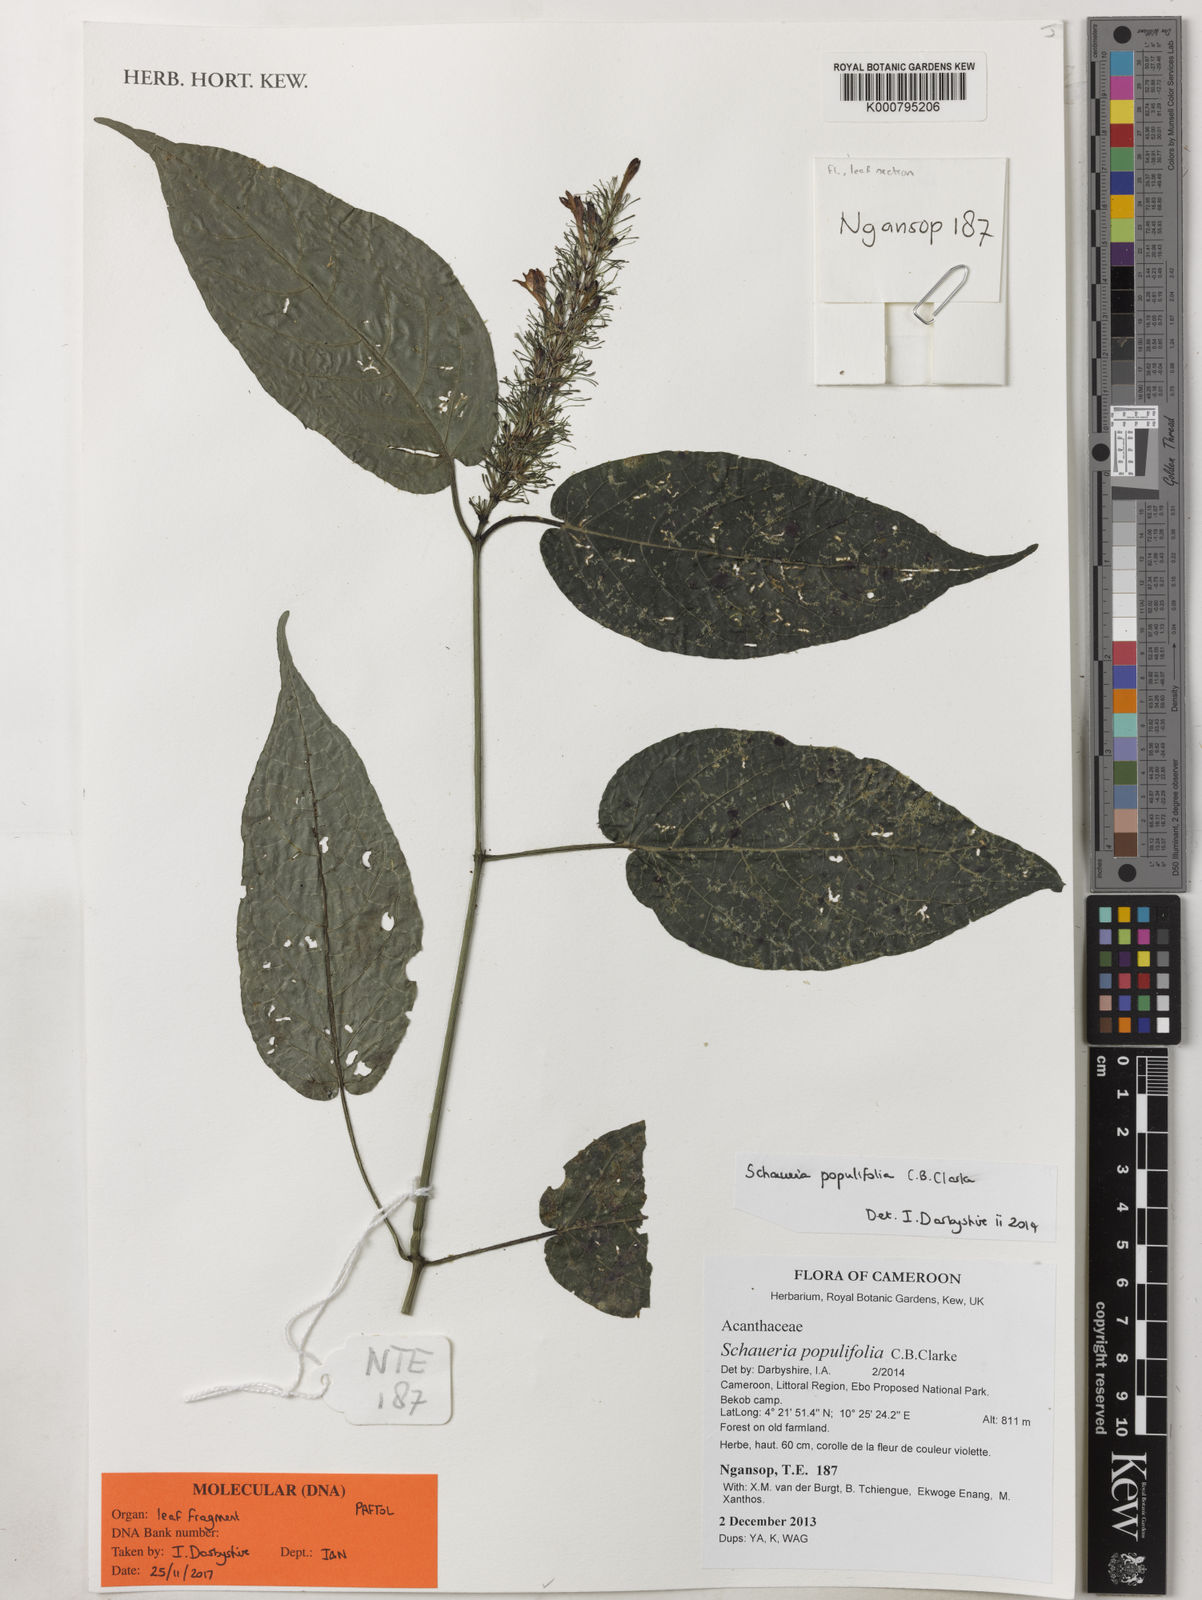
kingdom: Plantae
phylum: Tracheophyta
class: Magnoliopsida
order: Lamiales
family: Acanthaceae
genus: Champluviera
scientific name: Champluviera populifolia
